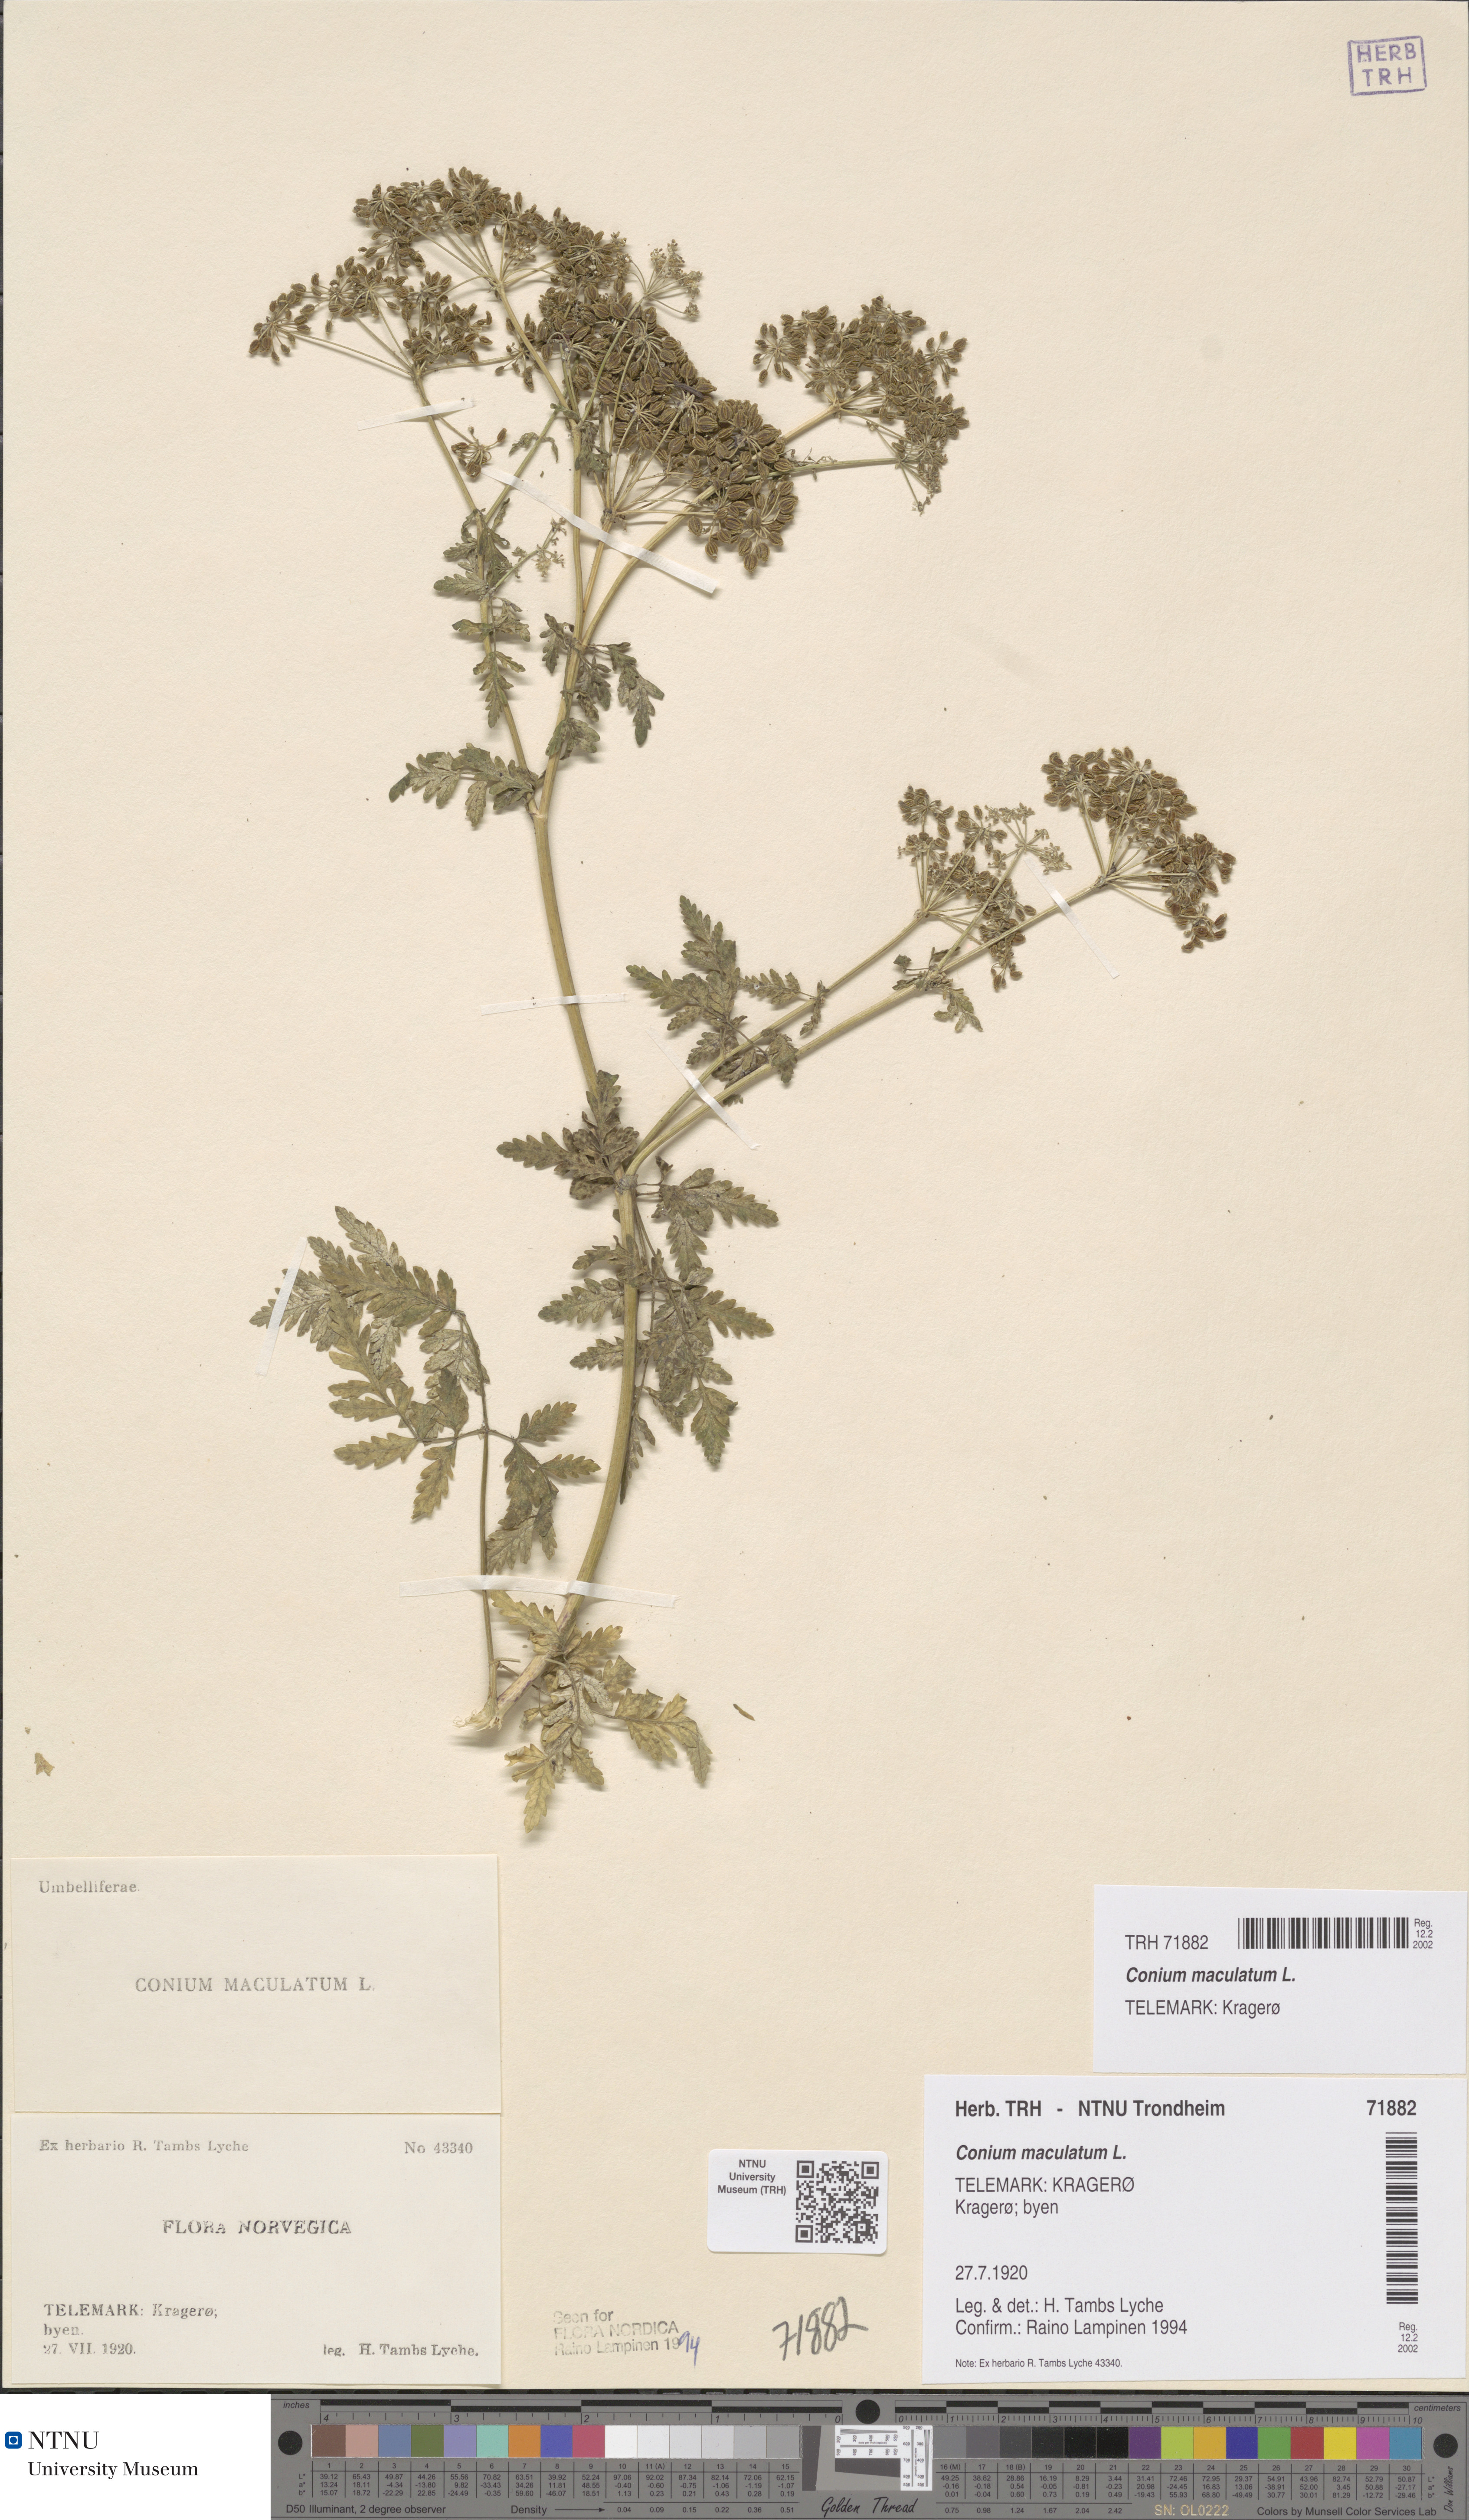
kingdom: Plantae
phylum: Tracheophyta
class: Magnoliopsida
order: Apiales
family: Apiaceae
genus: Conium
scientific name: Conium maculatum
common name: Hemlock
